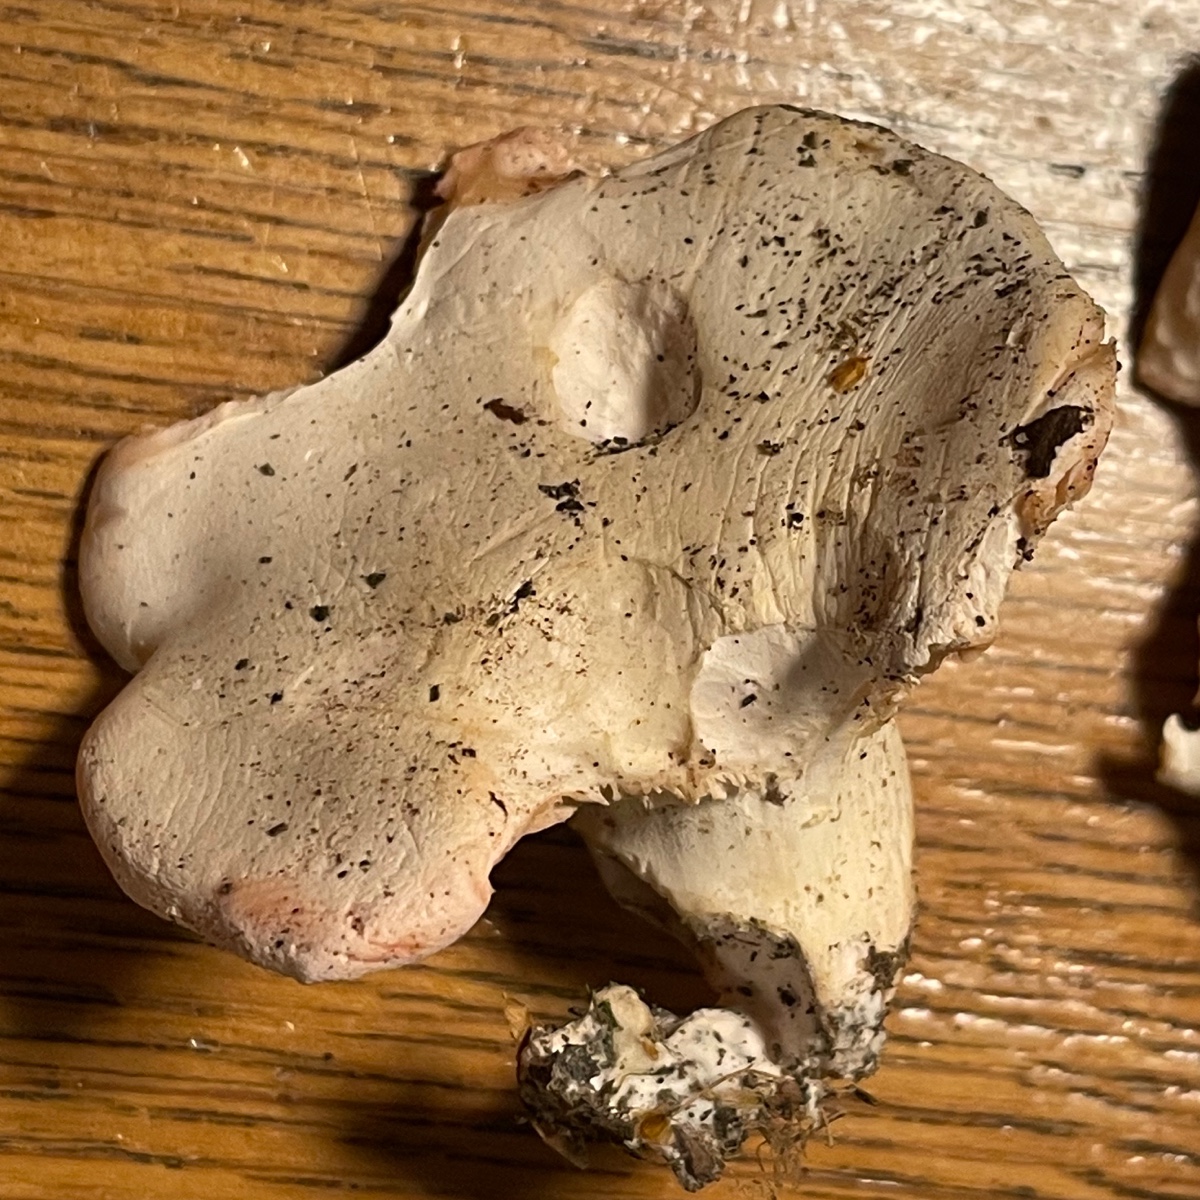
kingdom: Fungi
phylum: Basidiomycota
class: Agaricomycetes
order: Agaricales
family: Tricholomataceae
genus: Pseudoclitopilus
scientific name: Pseudoclitopilus rhodoleucus
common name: rosabladet tragtridderhat
